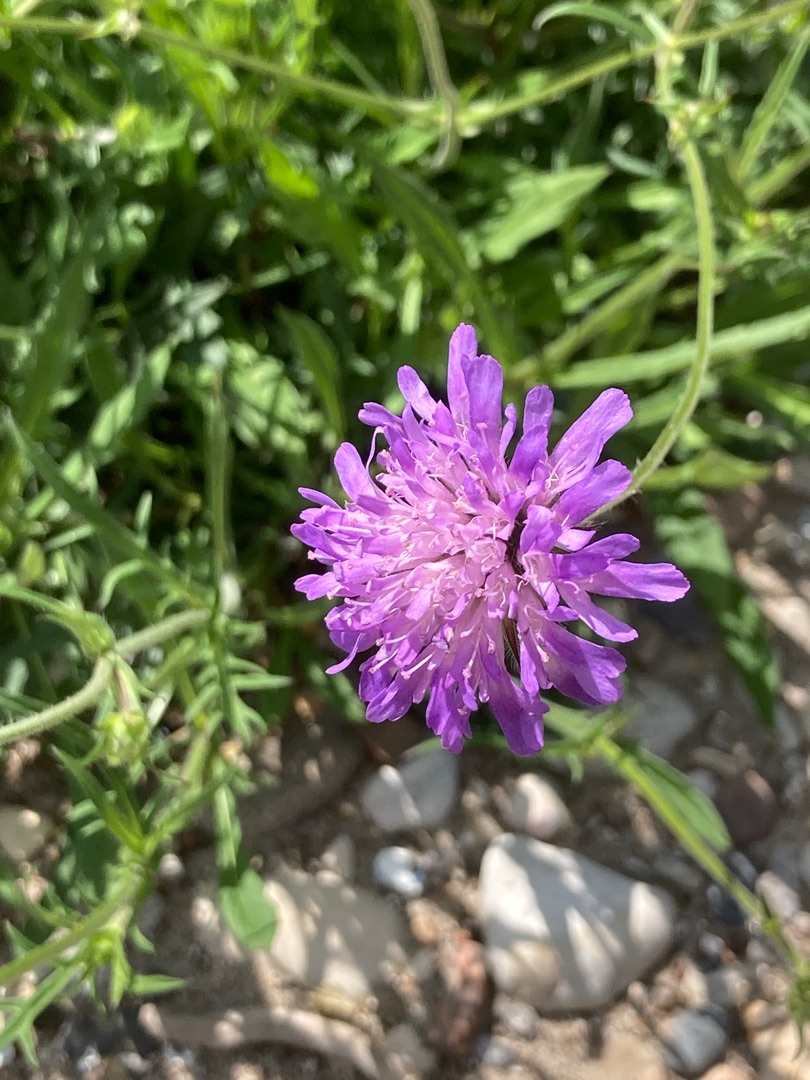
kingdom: Plantae
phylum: Tracheophyta
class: Magnoliopsida
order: Dipsacales
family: Caprifoliaceae
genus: Knautia
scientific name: Knautia arvensis
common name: Blåhat
